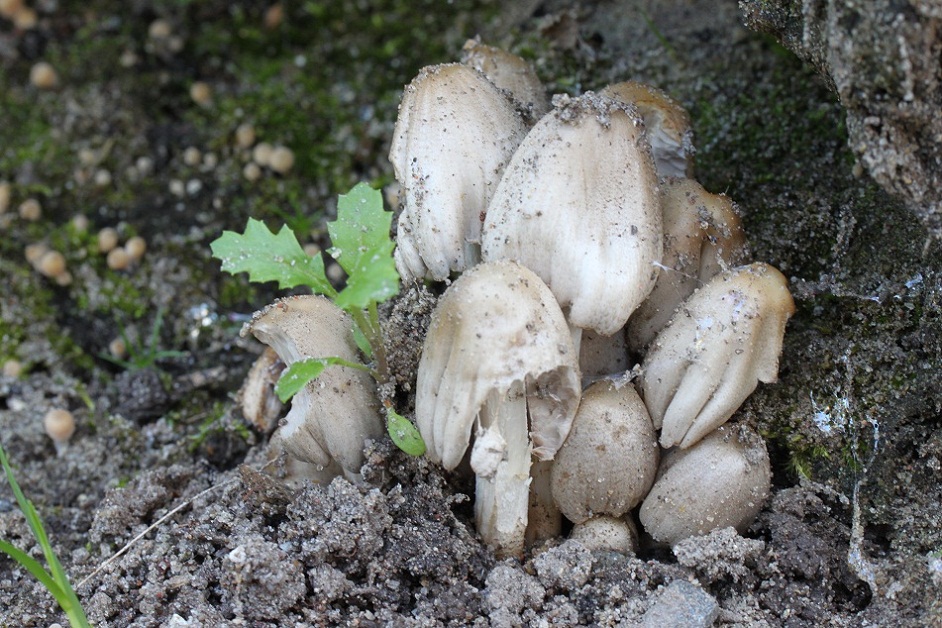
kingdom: Fungi
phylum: Basidiomycota
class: Agaricomycetes
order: Agaricales
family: Psathyrellaceae
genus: Coprinopsis
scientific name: Coprinopsis atramentaria
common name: almindelig blækhat
